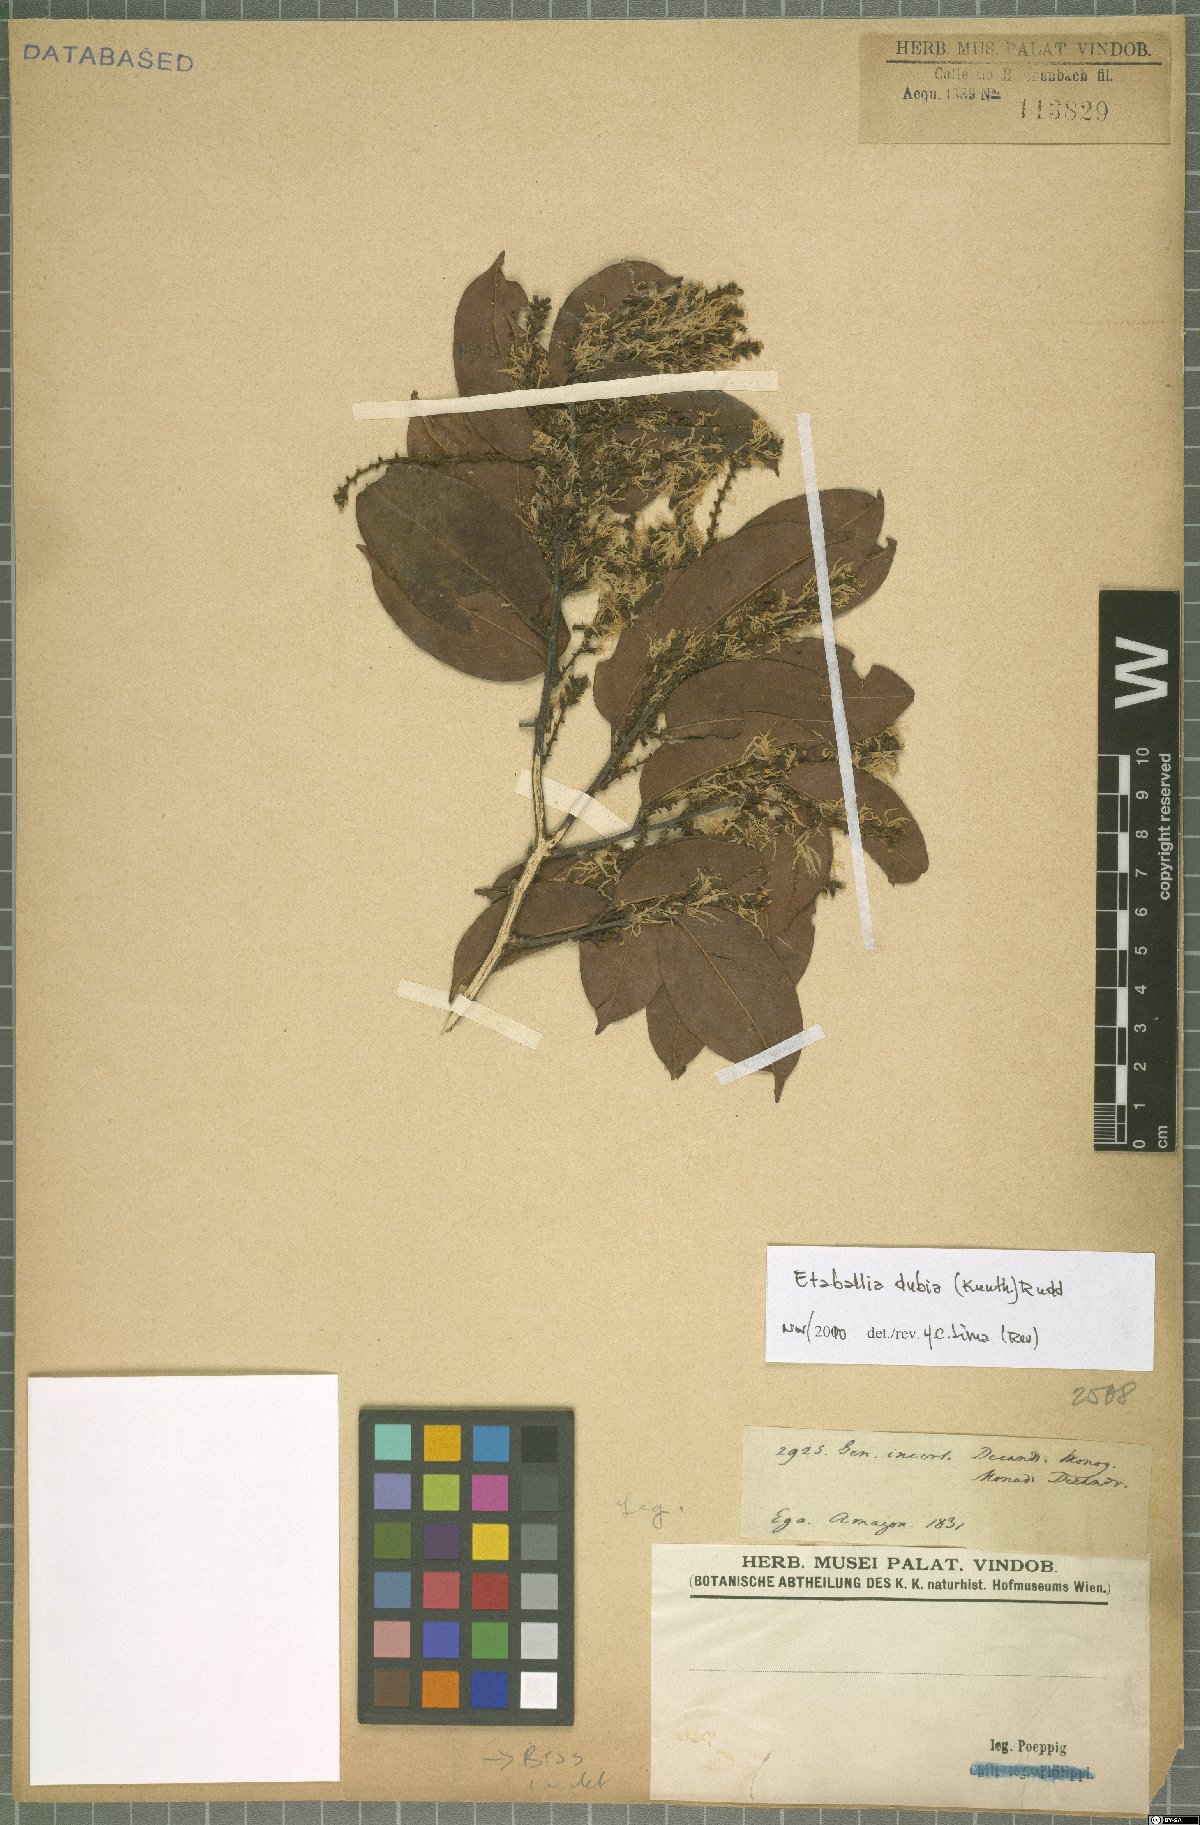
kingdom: Plantae
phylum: Tracheophyta
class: Magnoliopsida
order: Fabales
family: Fabaceae
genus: Pterocarpus
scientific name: Pterocarpus dubius
